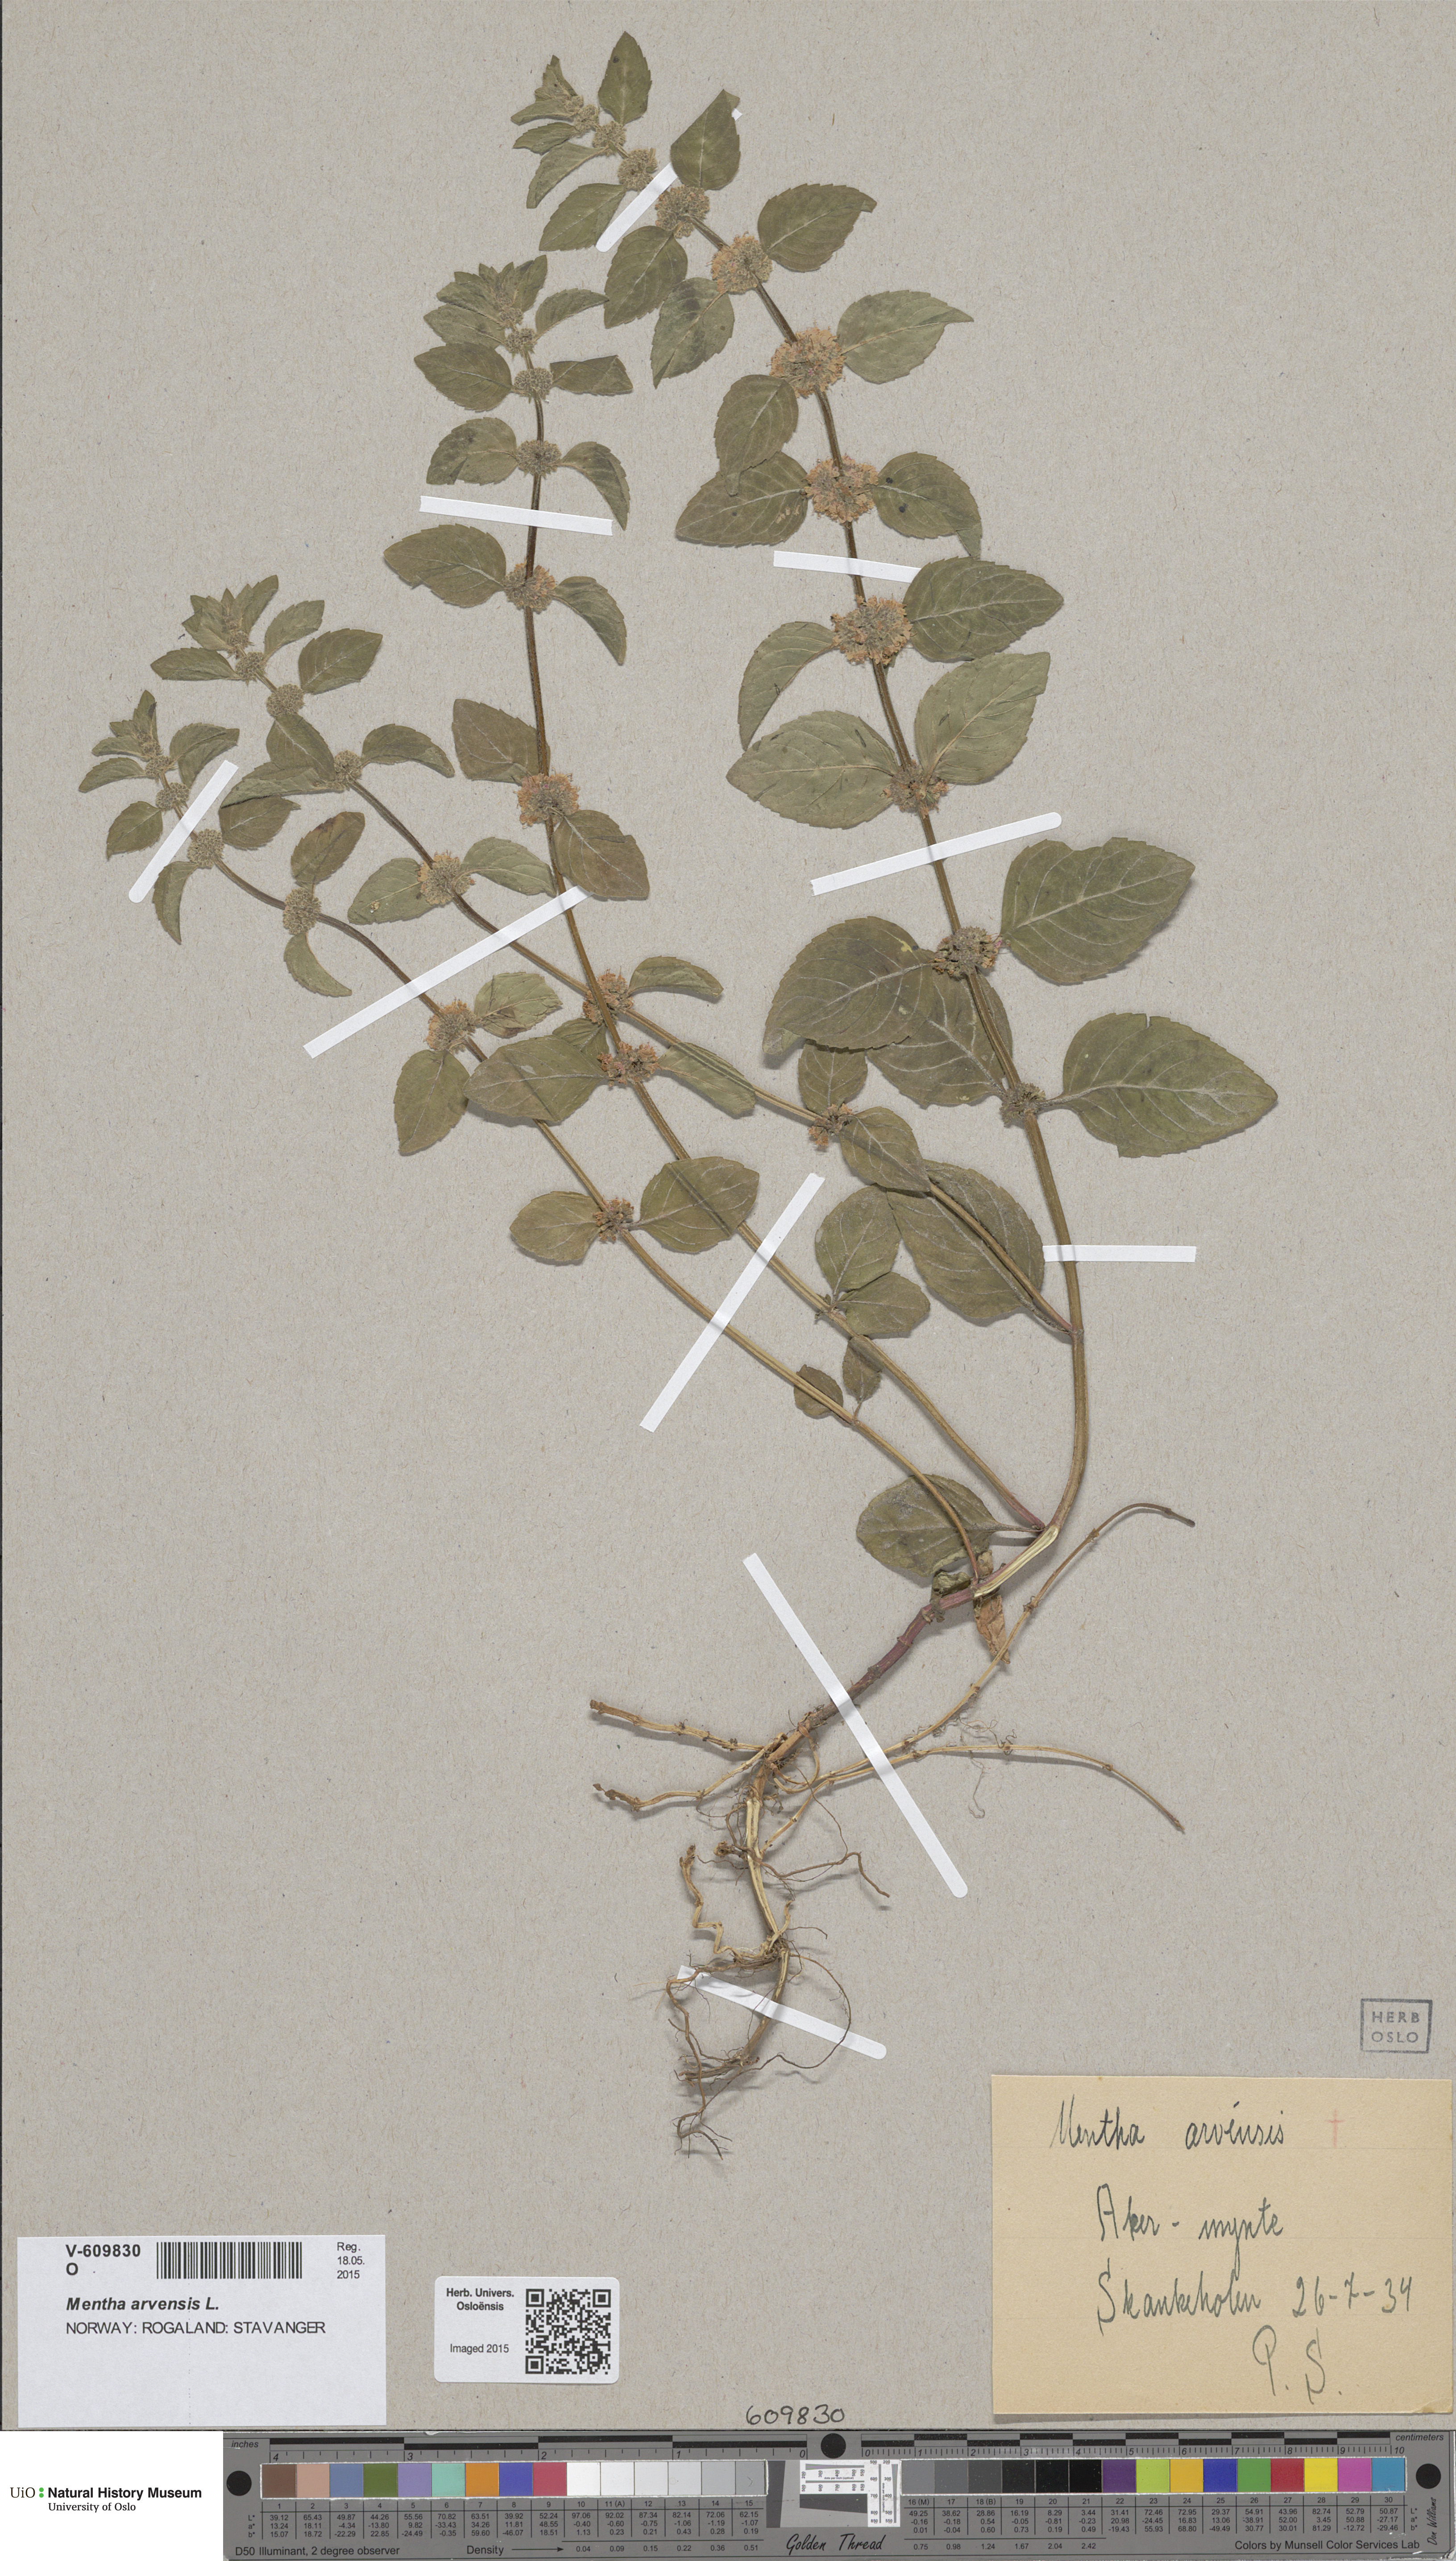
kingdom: Plantae
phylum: Tracheophyta
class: Magnoliopsida
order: Lamiales
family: Lamiaceae
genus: Mentha
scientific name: Mentha verticillata
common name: Mint
